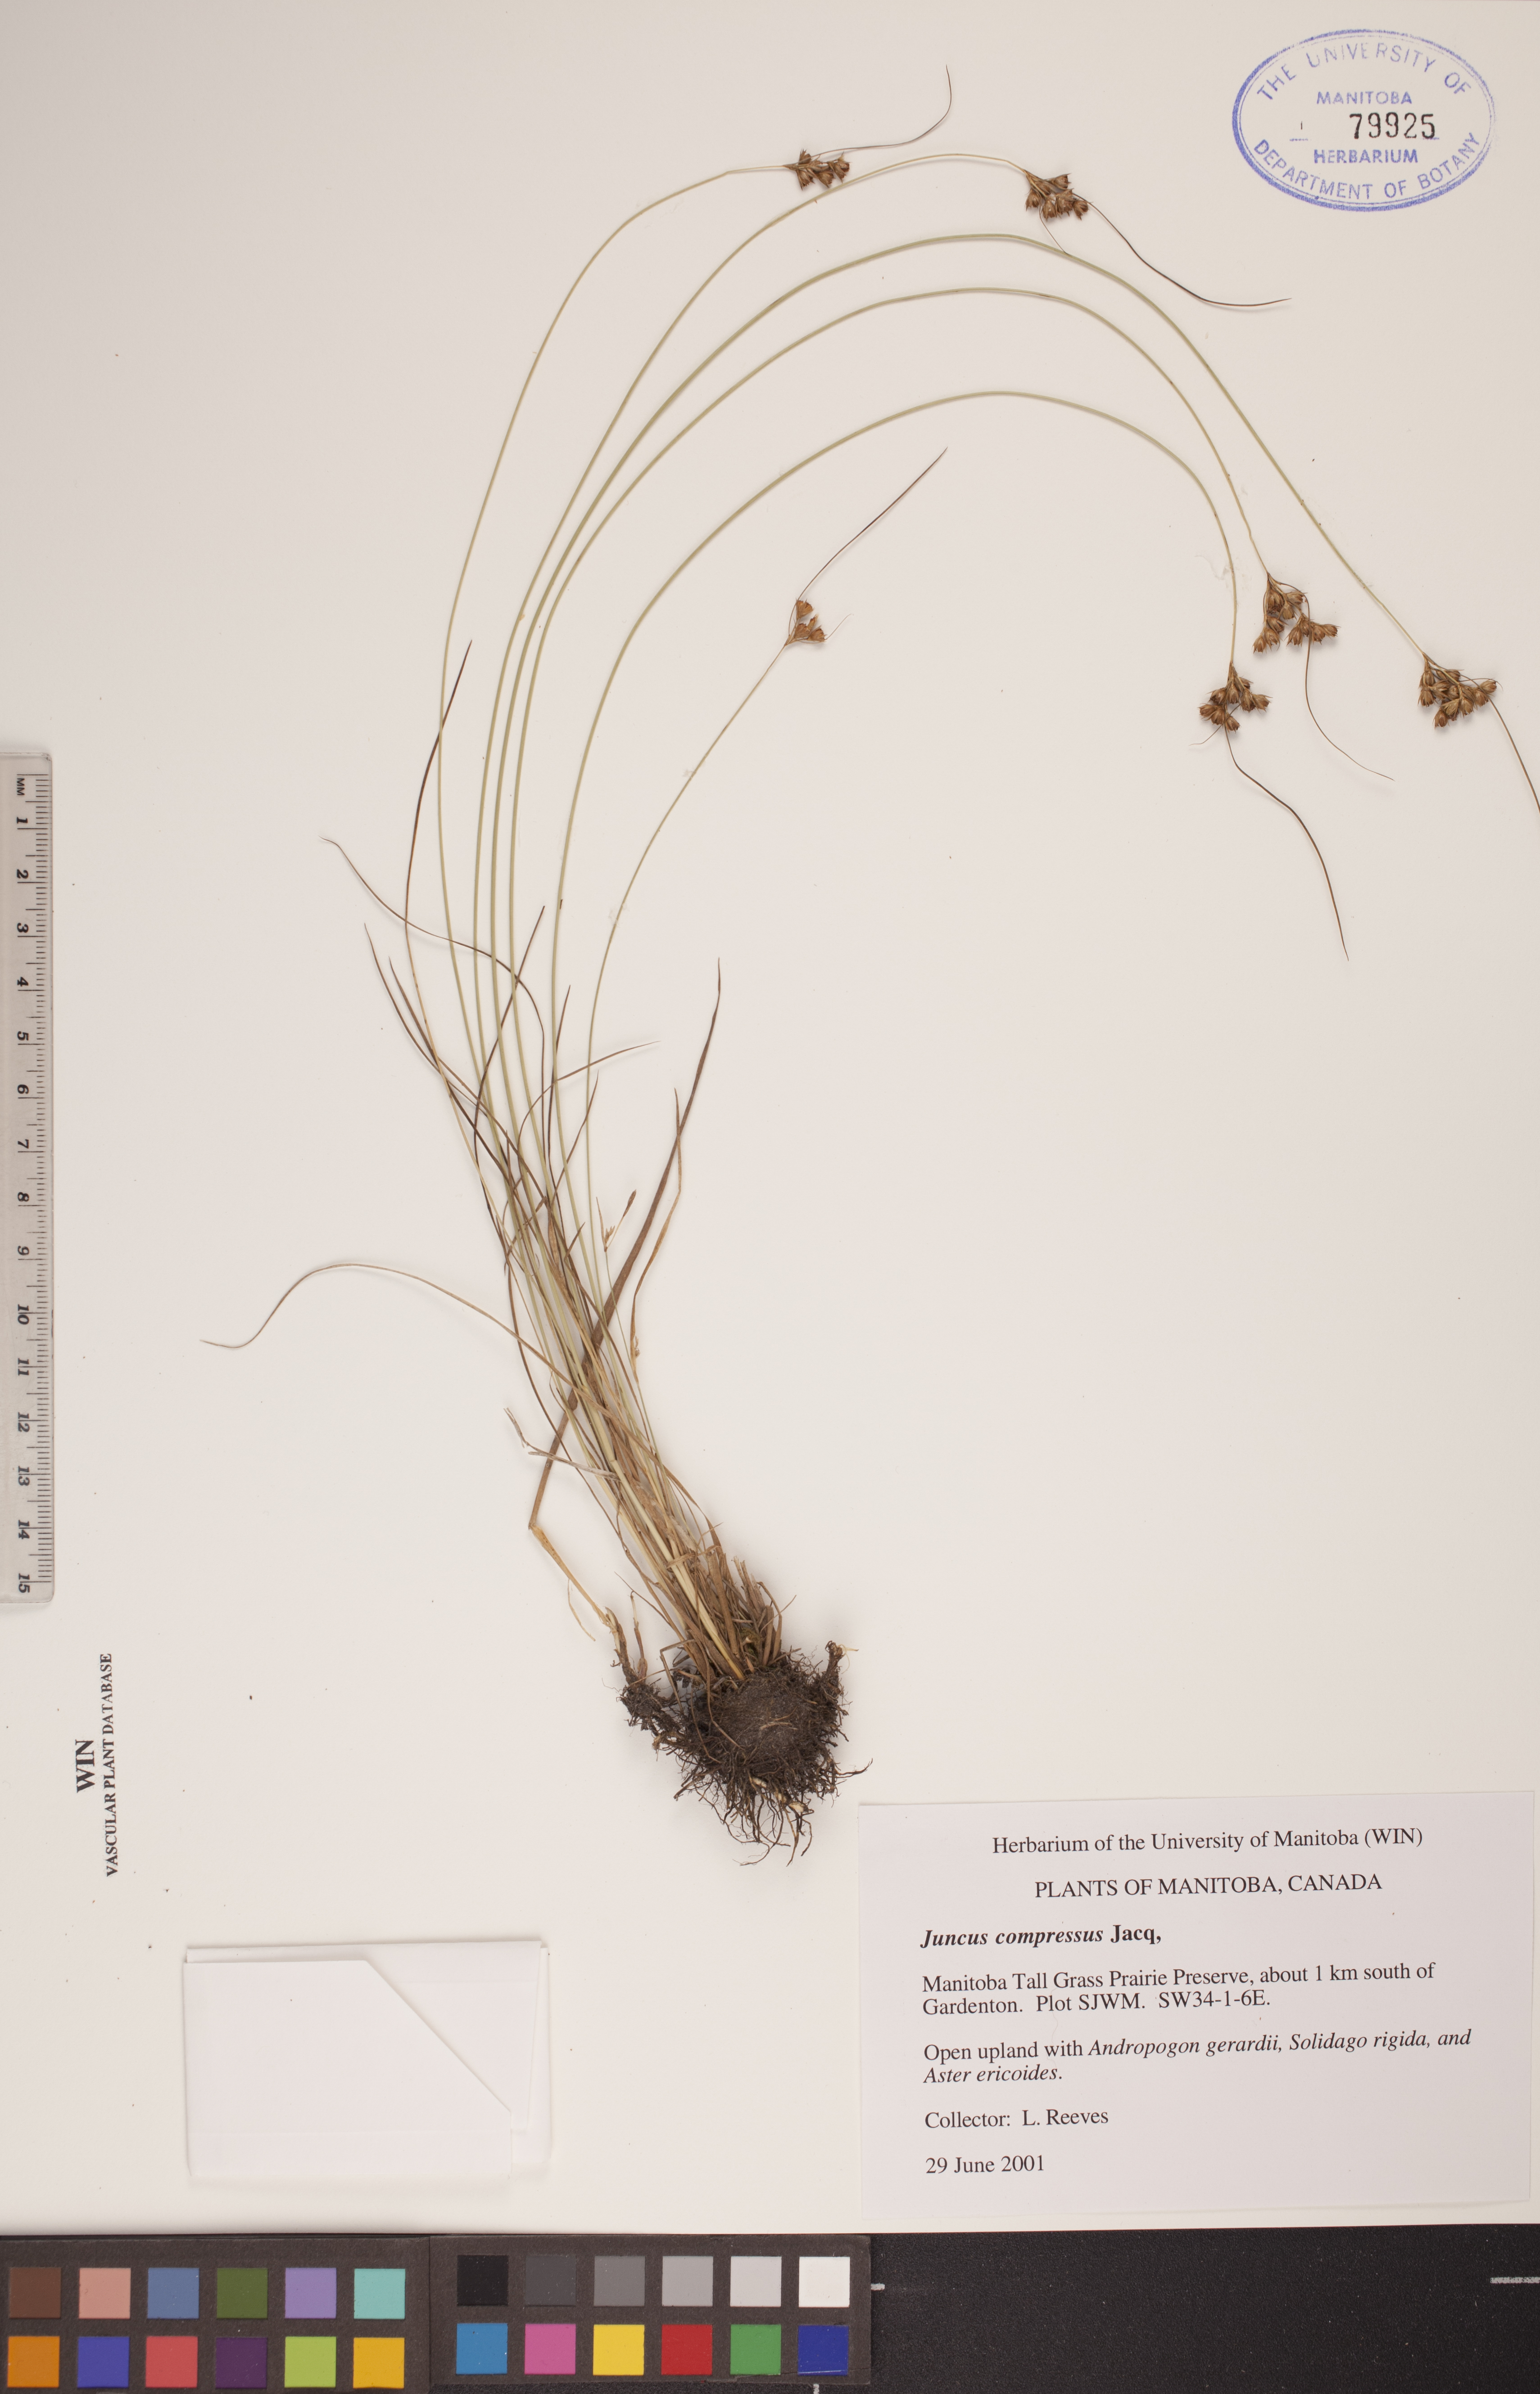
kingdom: Plantae
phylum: Tracheophyta
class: Liliopsida
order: Poales
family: Juncaceae
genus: Juncus
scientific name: Juncus compressus
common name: Round-fruited rush
